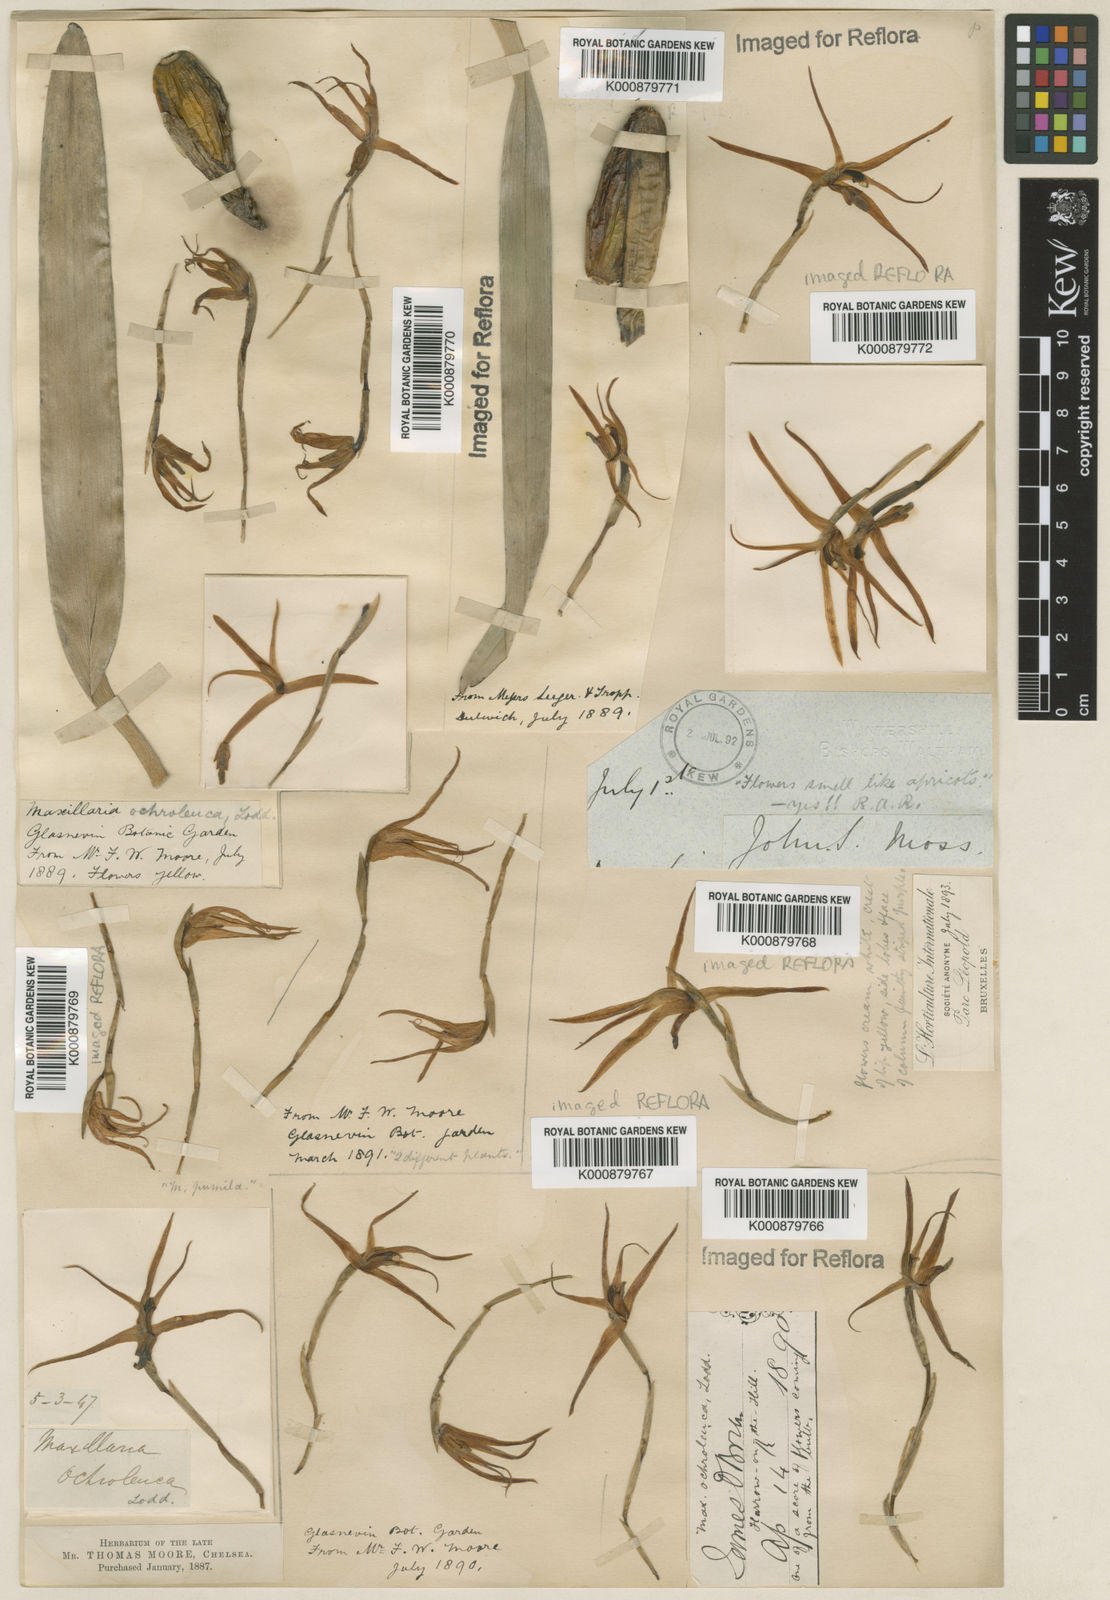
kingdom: Plantae
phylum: Tracheophyta
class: Liliopsida
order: Asparagales
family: Orchidaceae
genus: Maxillaria
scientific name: Maxillaria ochroleuca
